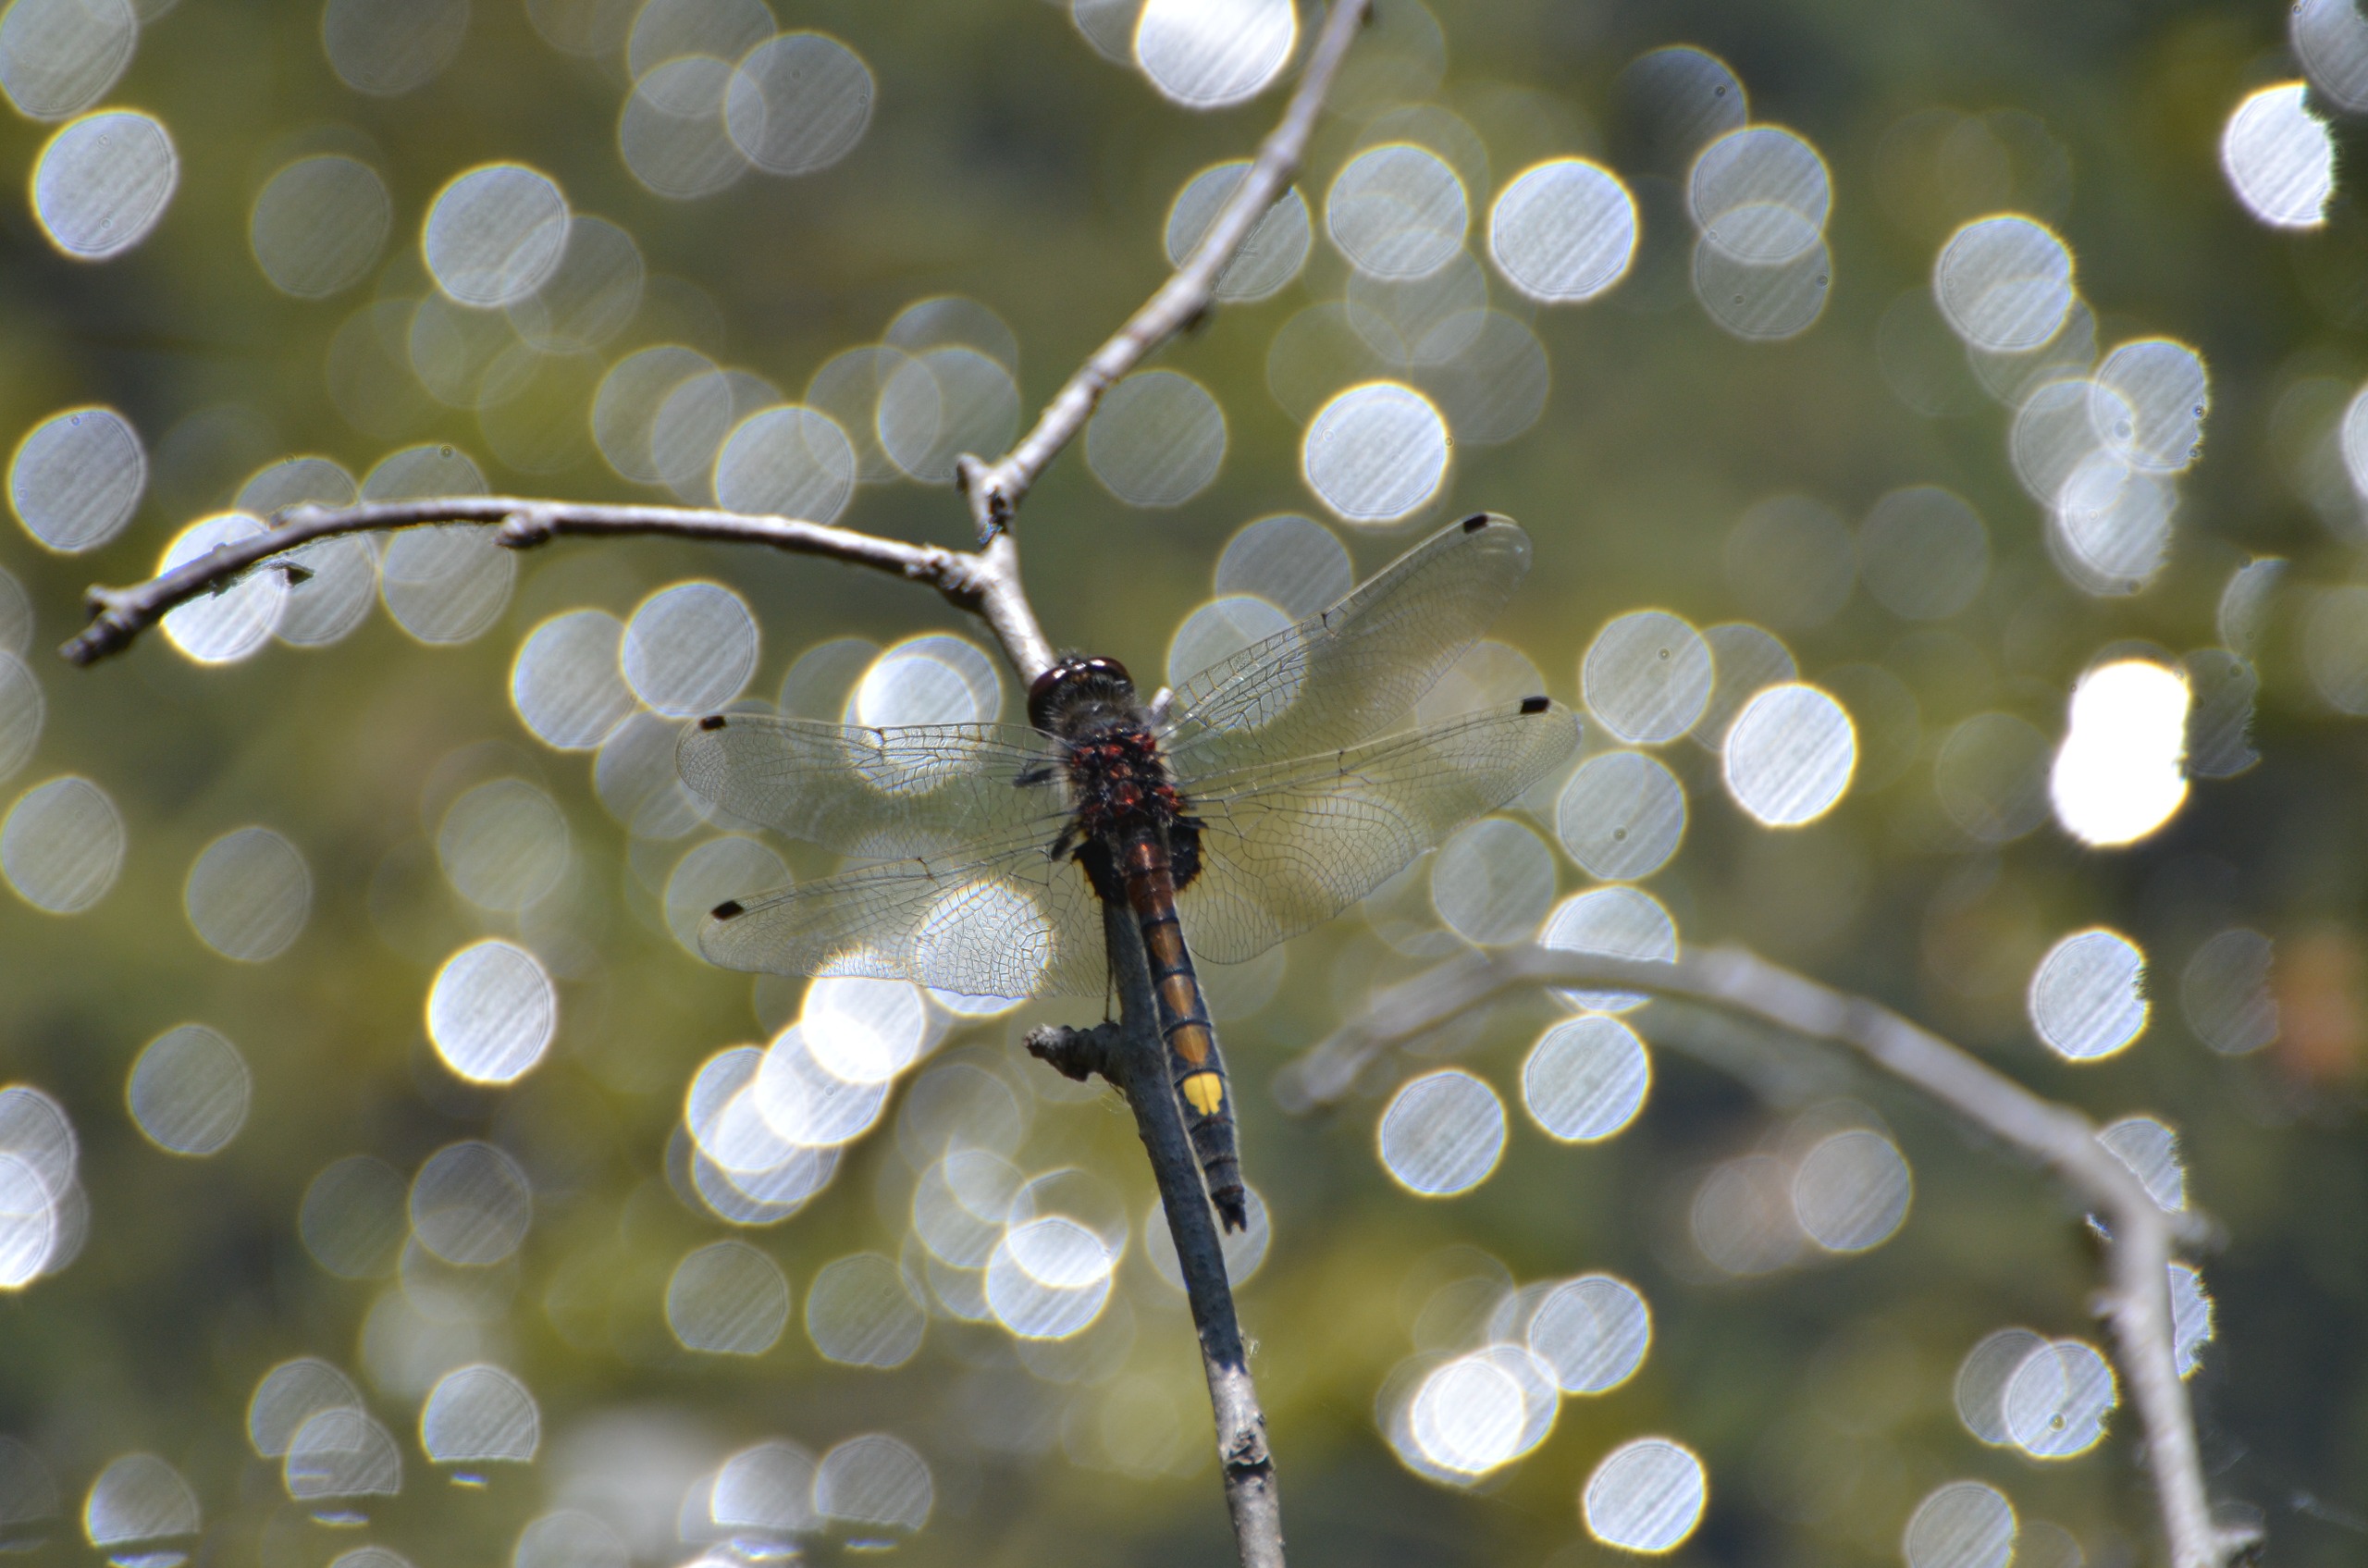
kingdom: Animalia
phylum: Arthropoda
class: Insecta
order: Odonata
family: Libellulidae
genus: Leucorrhinia
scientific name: Leucorrhinia pectoralis
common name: Stor kærguldsmed
